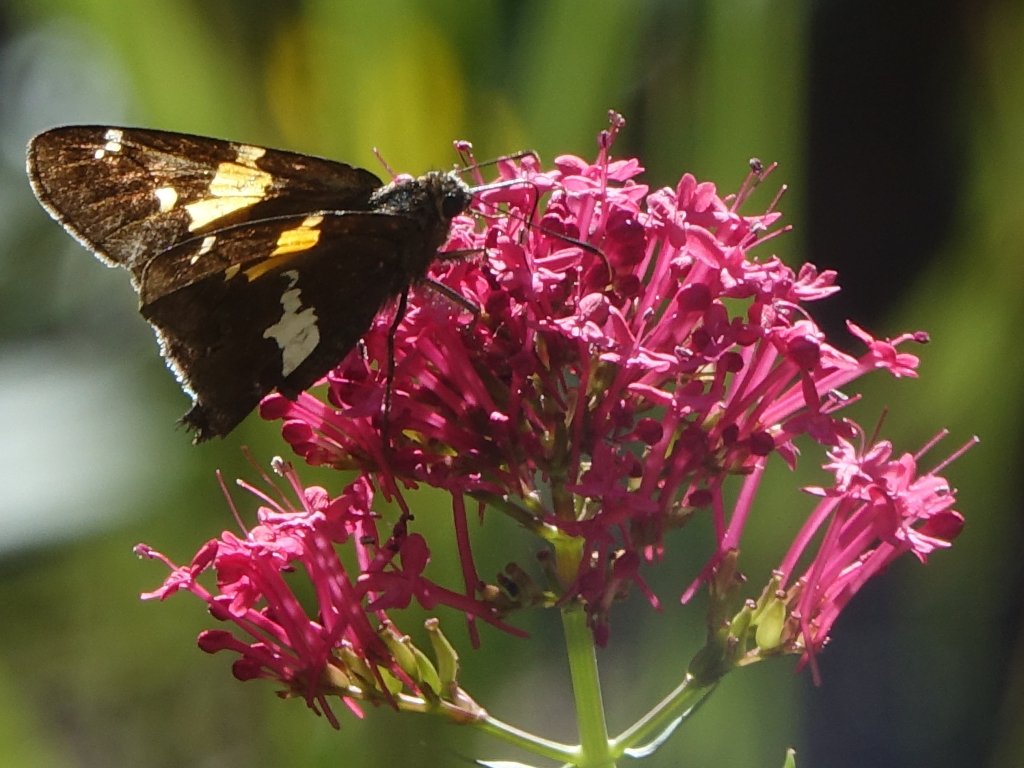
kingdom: Animalia
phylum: Arthropoda
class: Insecta
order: Lepidoptera
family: Hesperiidae
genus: Epargyreus
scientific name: Epargyreus clarus
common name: Silver-spotted Skipper
